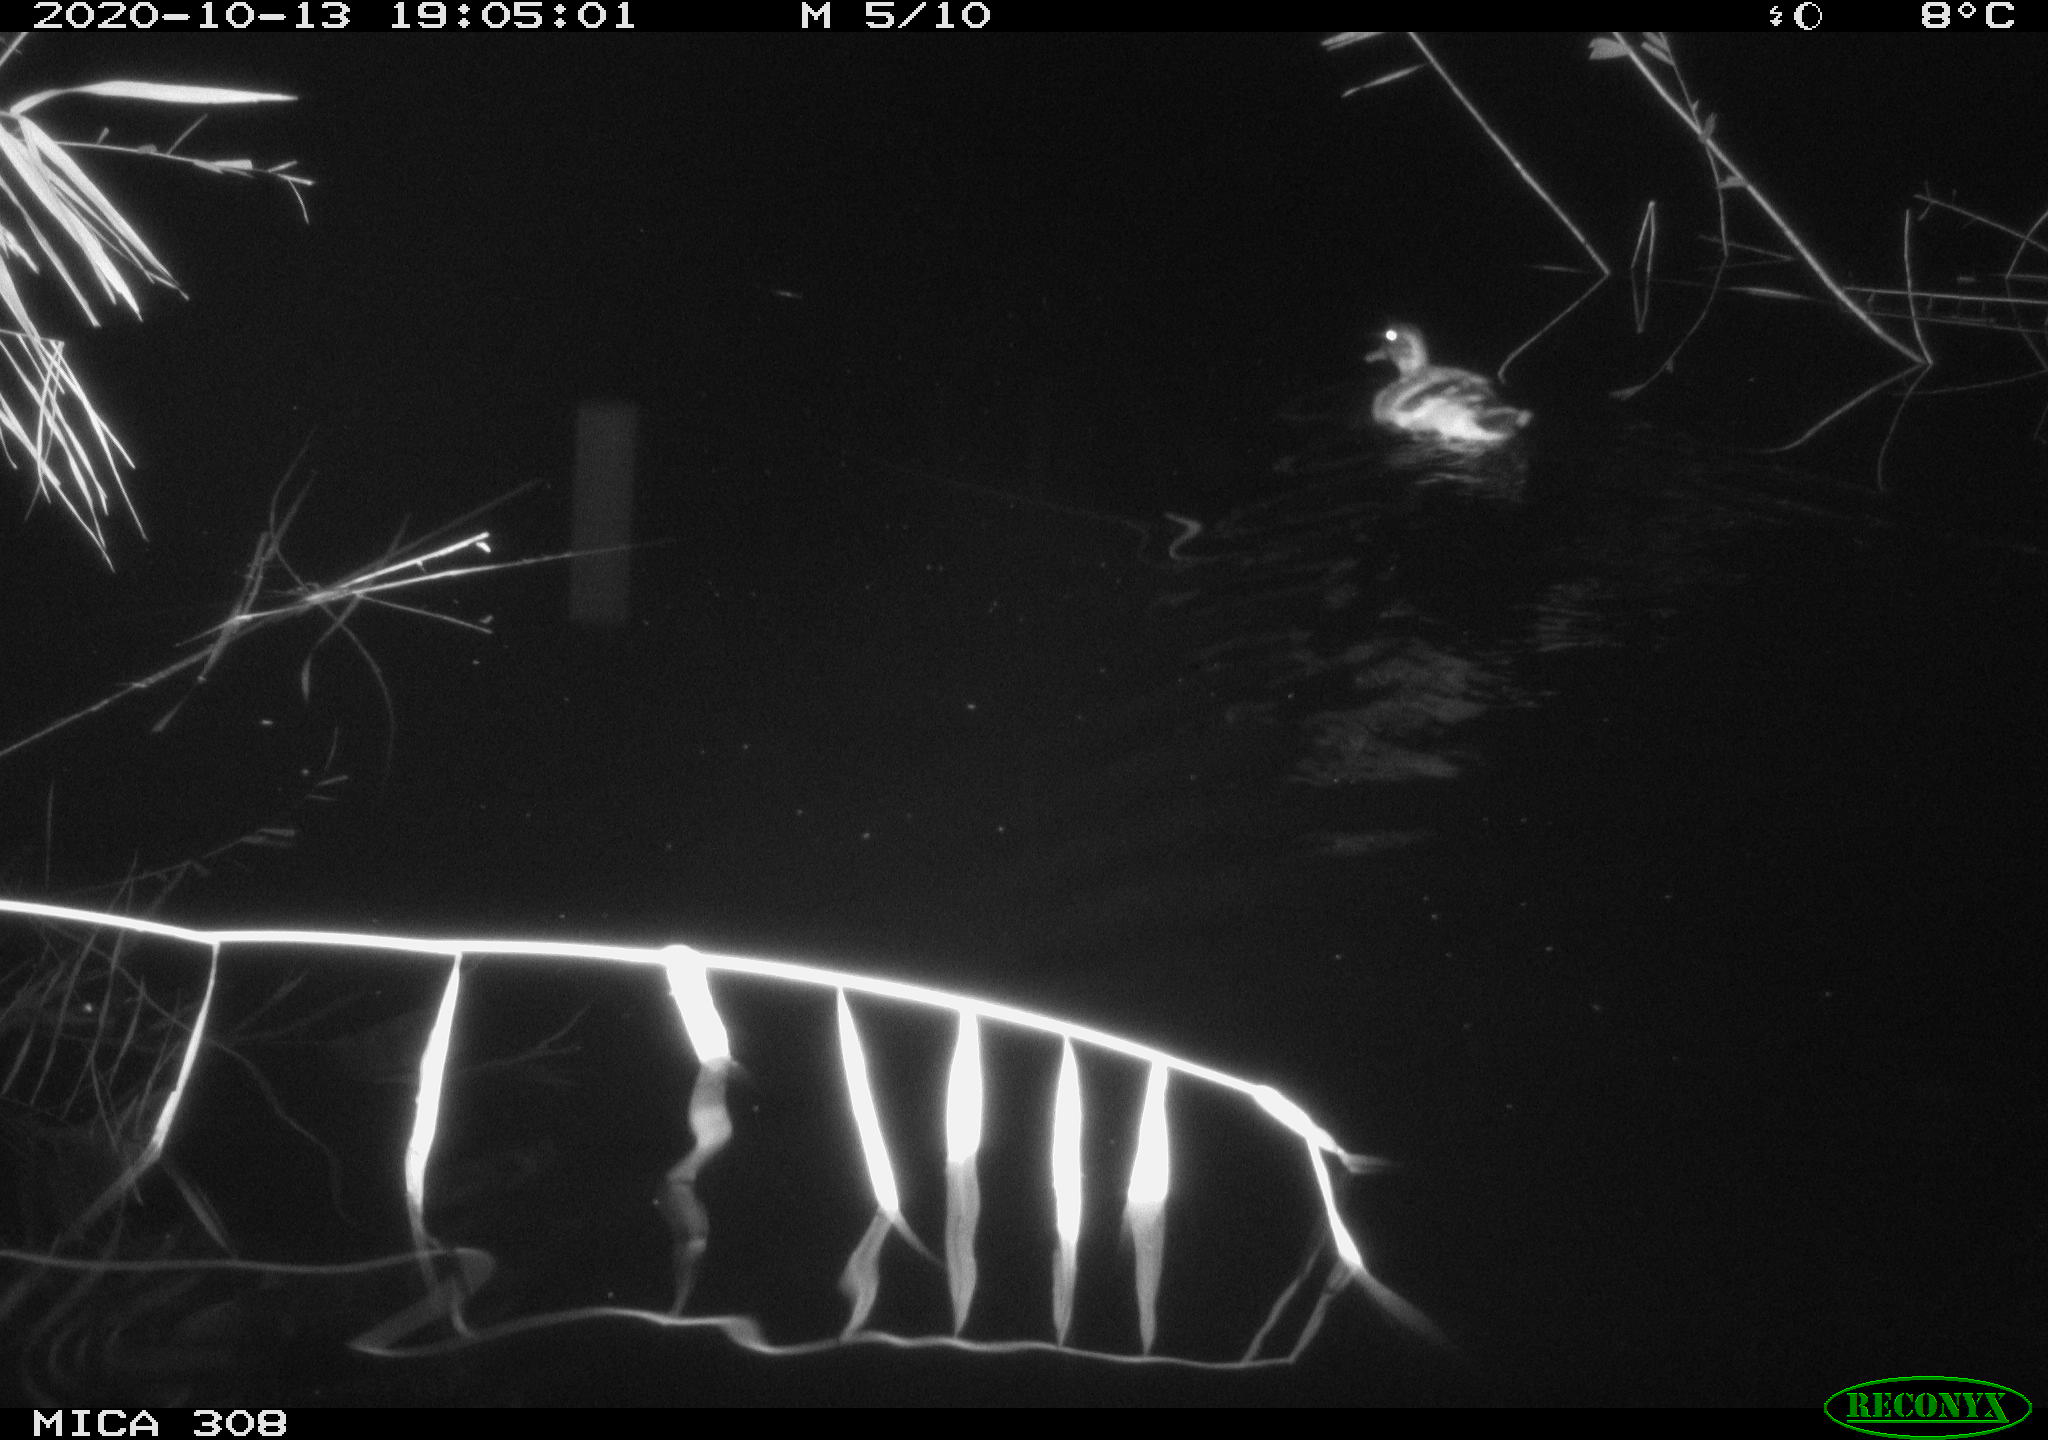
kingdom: Animalia
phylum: Chordata
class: Aves
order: Anseriformes
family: Anatidae
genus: Anas
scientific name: Anas platyrhynchos
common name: Mallard
